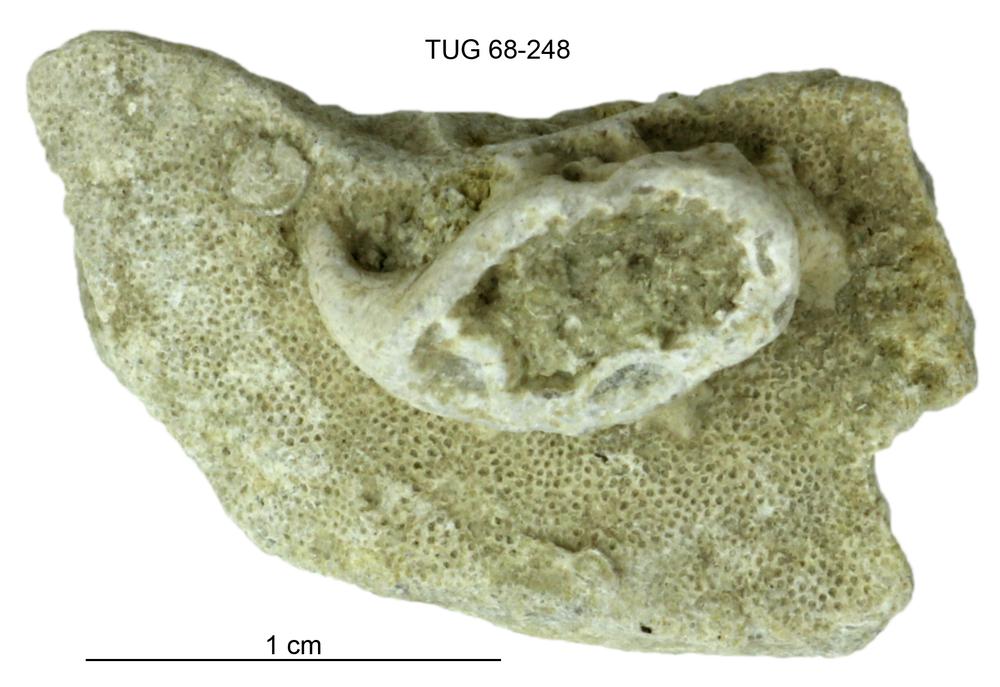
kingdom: Animalia
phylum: Bryozoa
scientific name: Bryozoa
